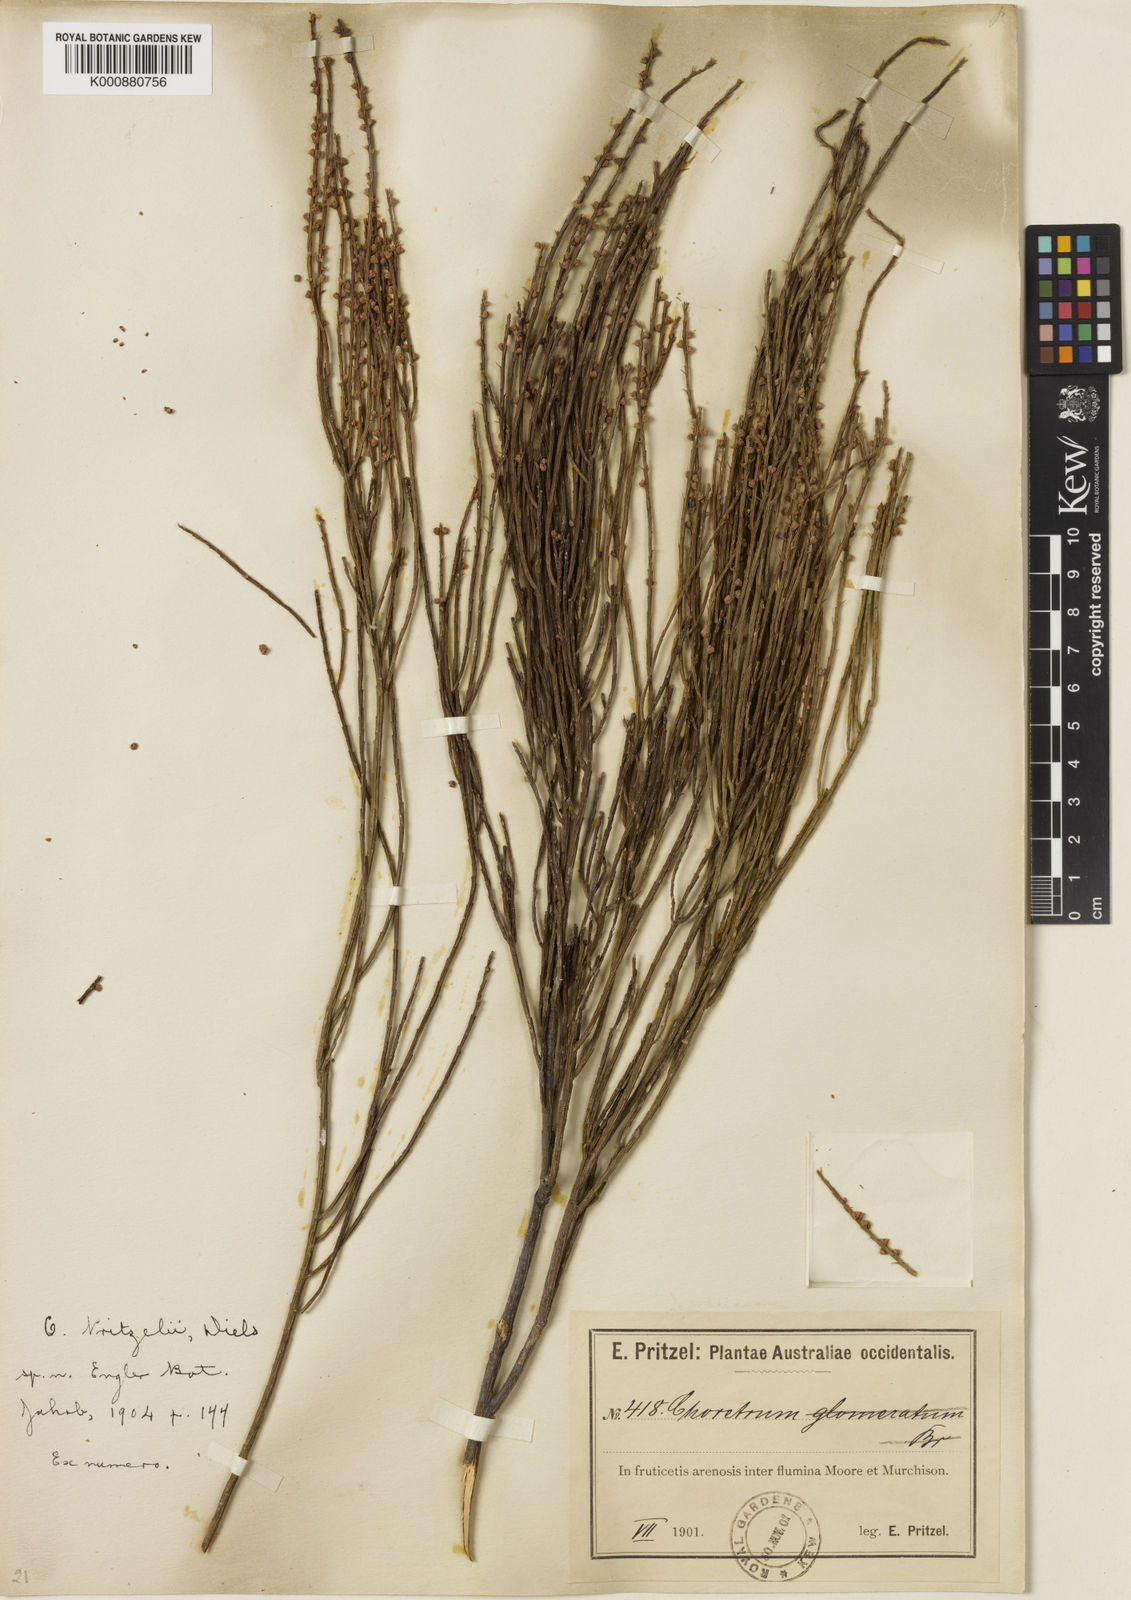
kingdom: Plantae
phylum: Tracheophyta
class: Magnoliopsida
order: Santalales
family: Amphorogynaceae
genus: Choretrum
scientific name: Choretrum pritzelii
